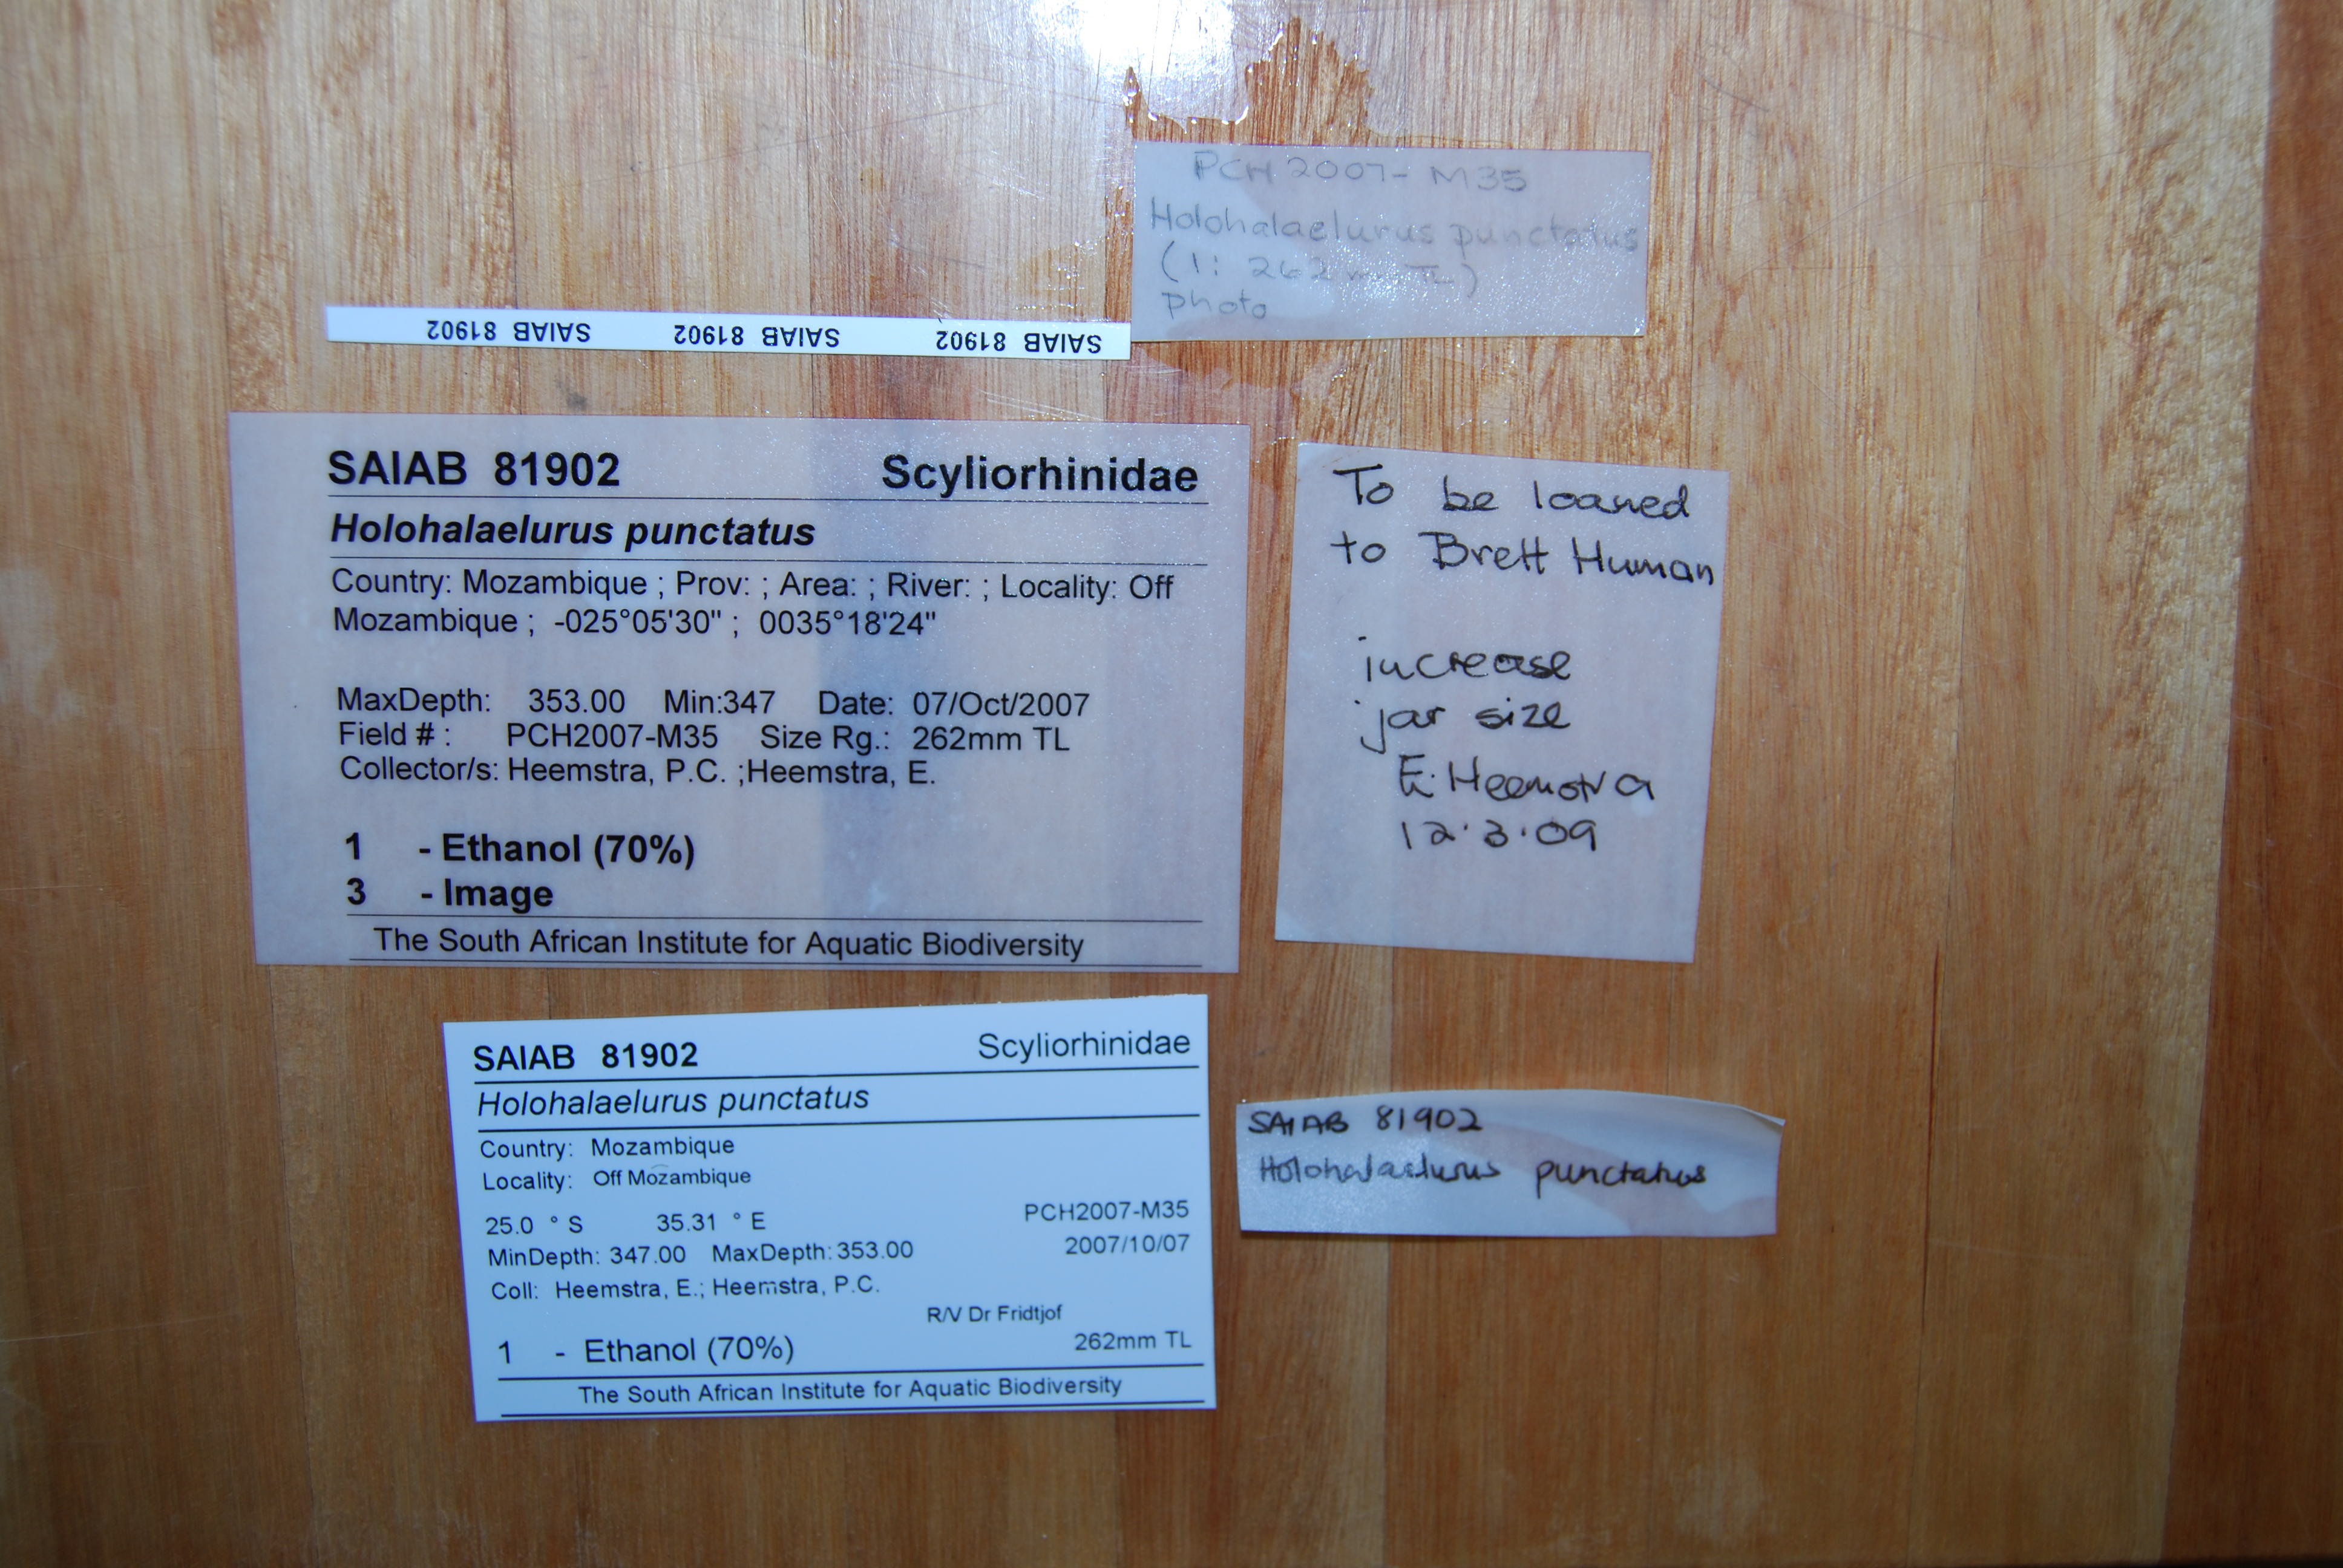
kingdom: Animalia
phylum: Chordata
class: Elasmobranchii
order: Carcharhiniformes
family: Scyliorhinidae
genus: Holohalaelurus
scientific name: Holohalaelurus grennian
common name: Grinning izak catshark
